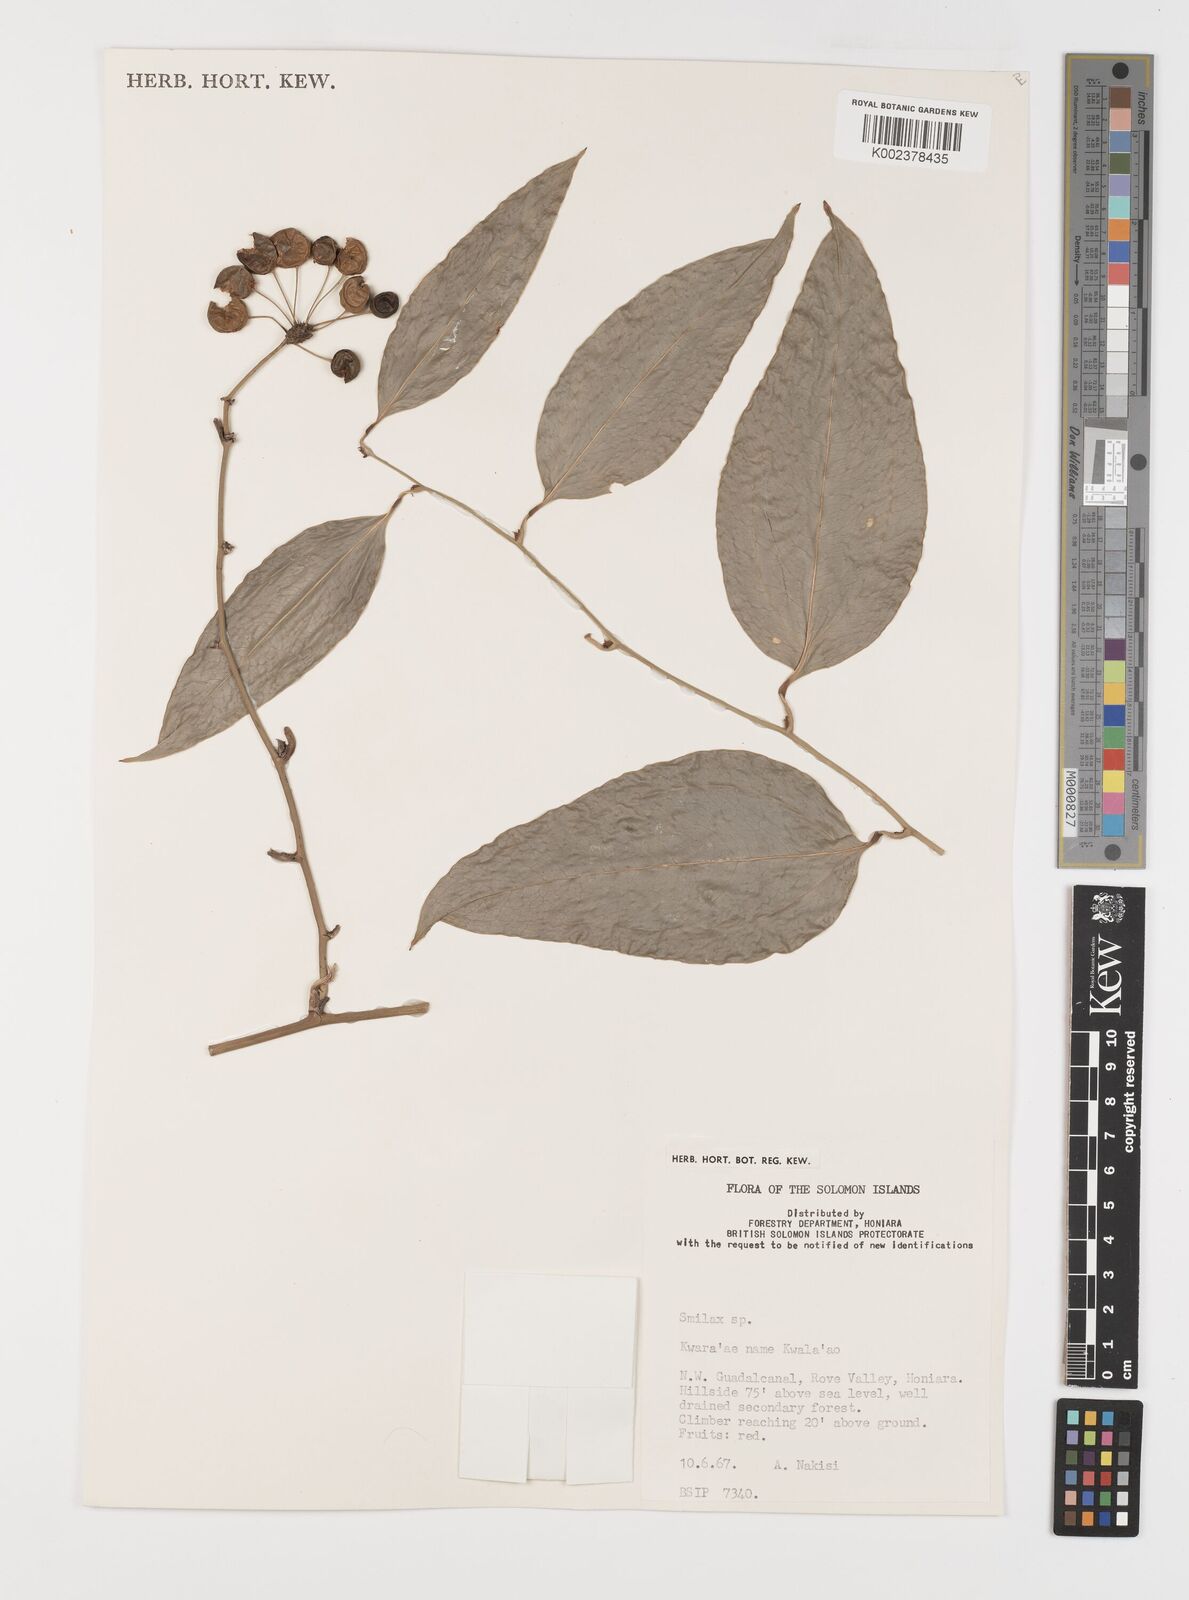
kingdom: Plantae
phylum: Tracheophyta
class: Liliopsida
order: Liliales
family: Smilacaceae
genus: Smilax
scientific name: Smilax
